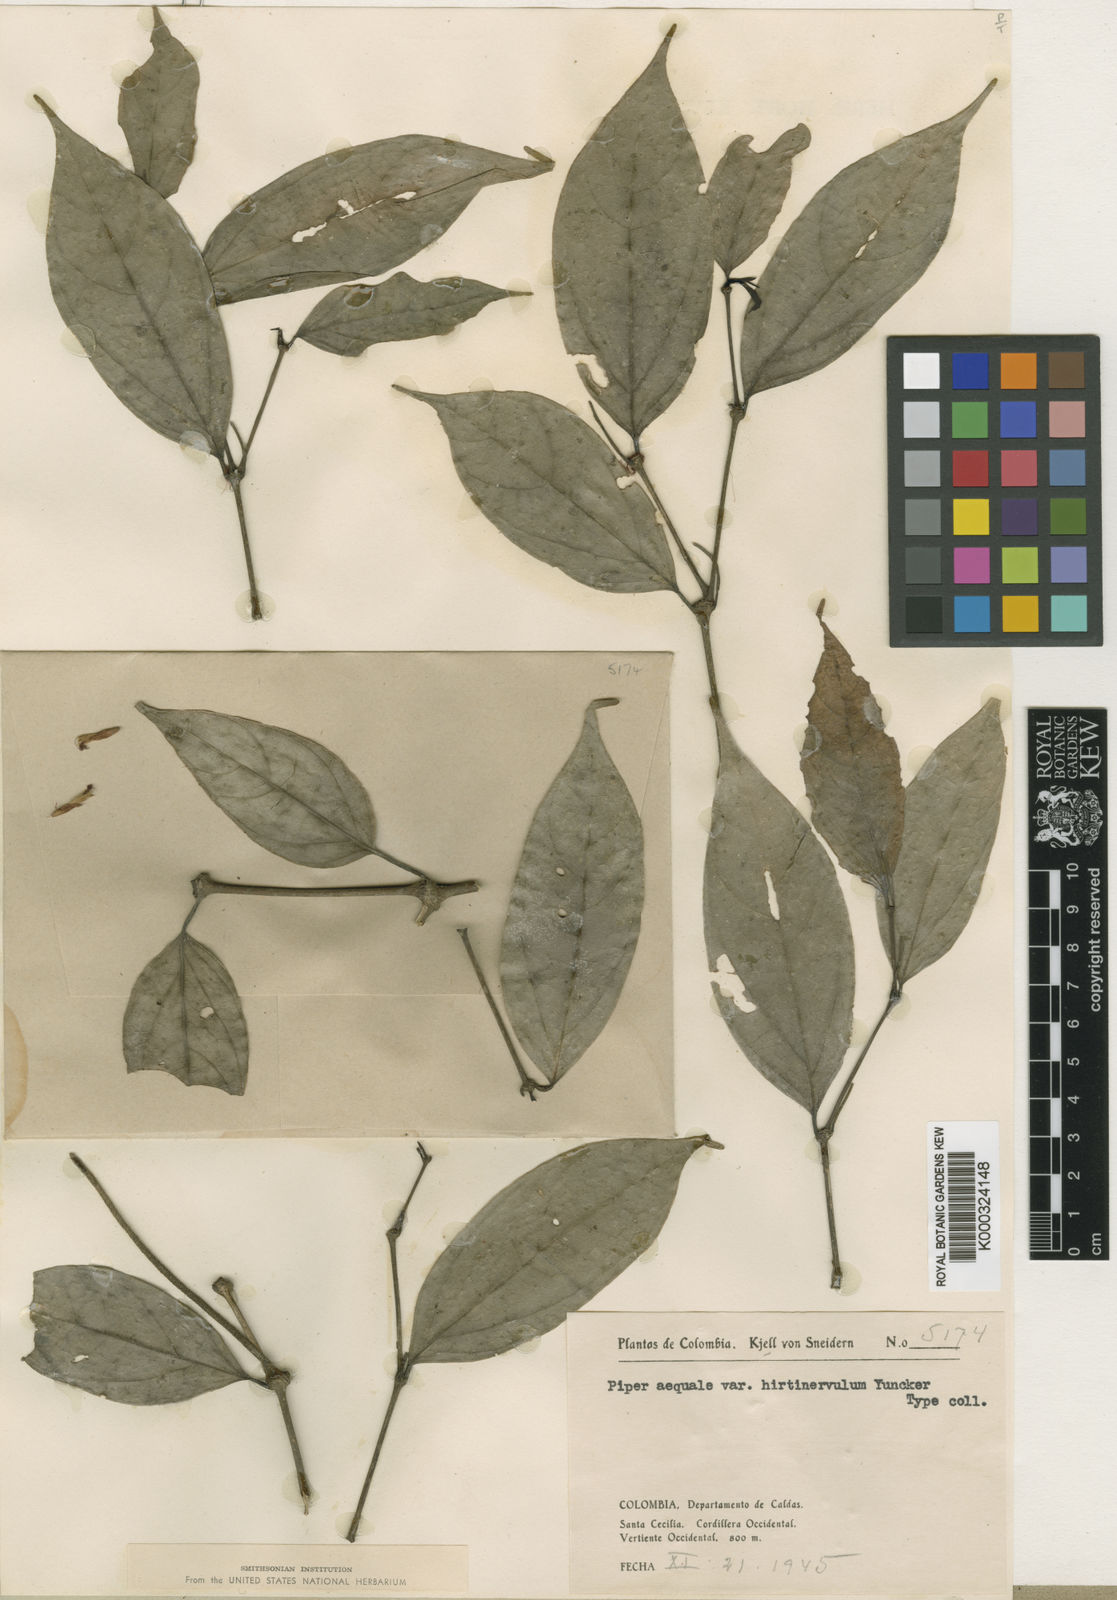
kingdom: Plantae
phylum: Tracheophyta
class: Magnoliopsida
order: Piperales
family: Piperaceae
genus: Piper
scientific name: Piper aequale
